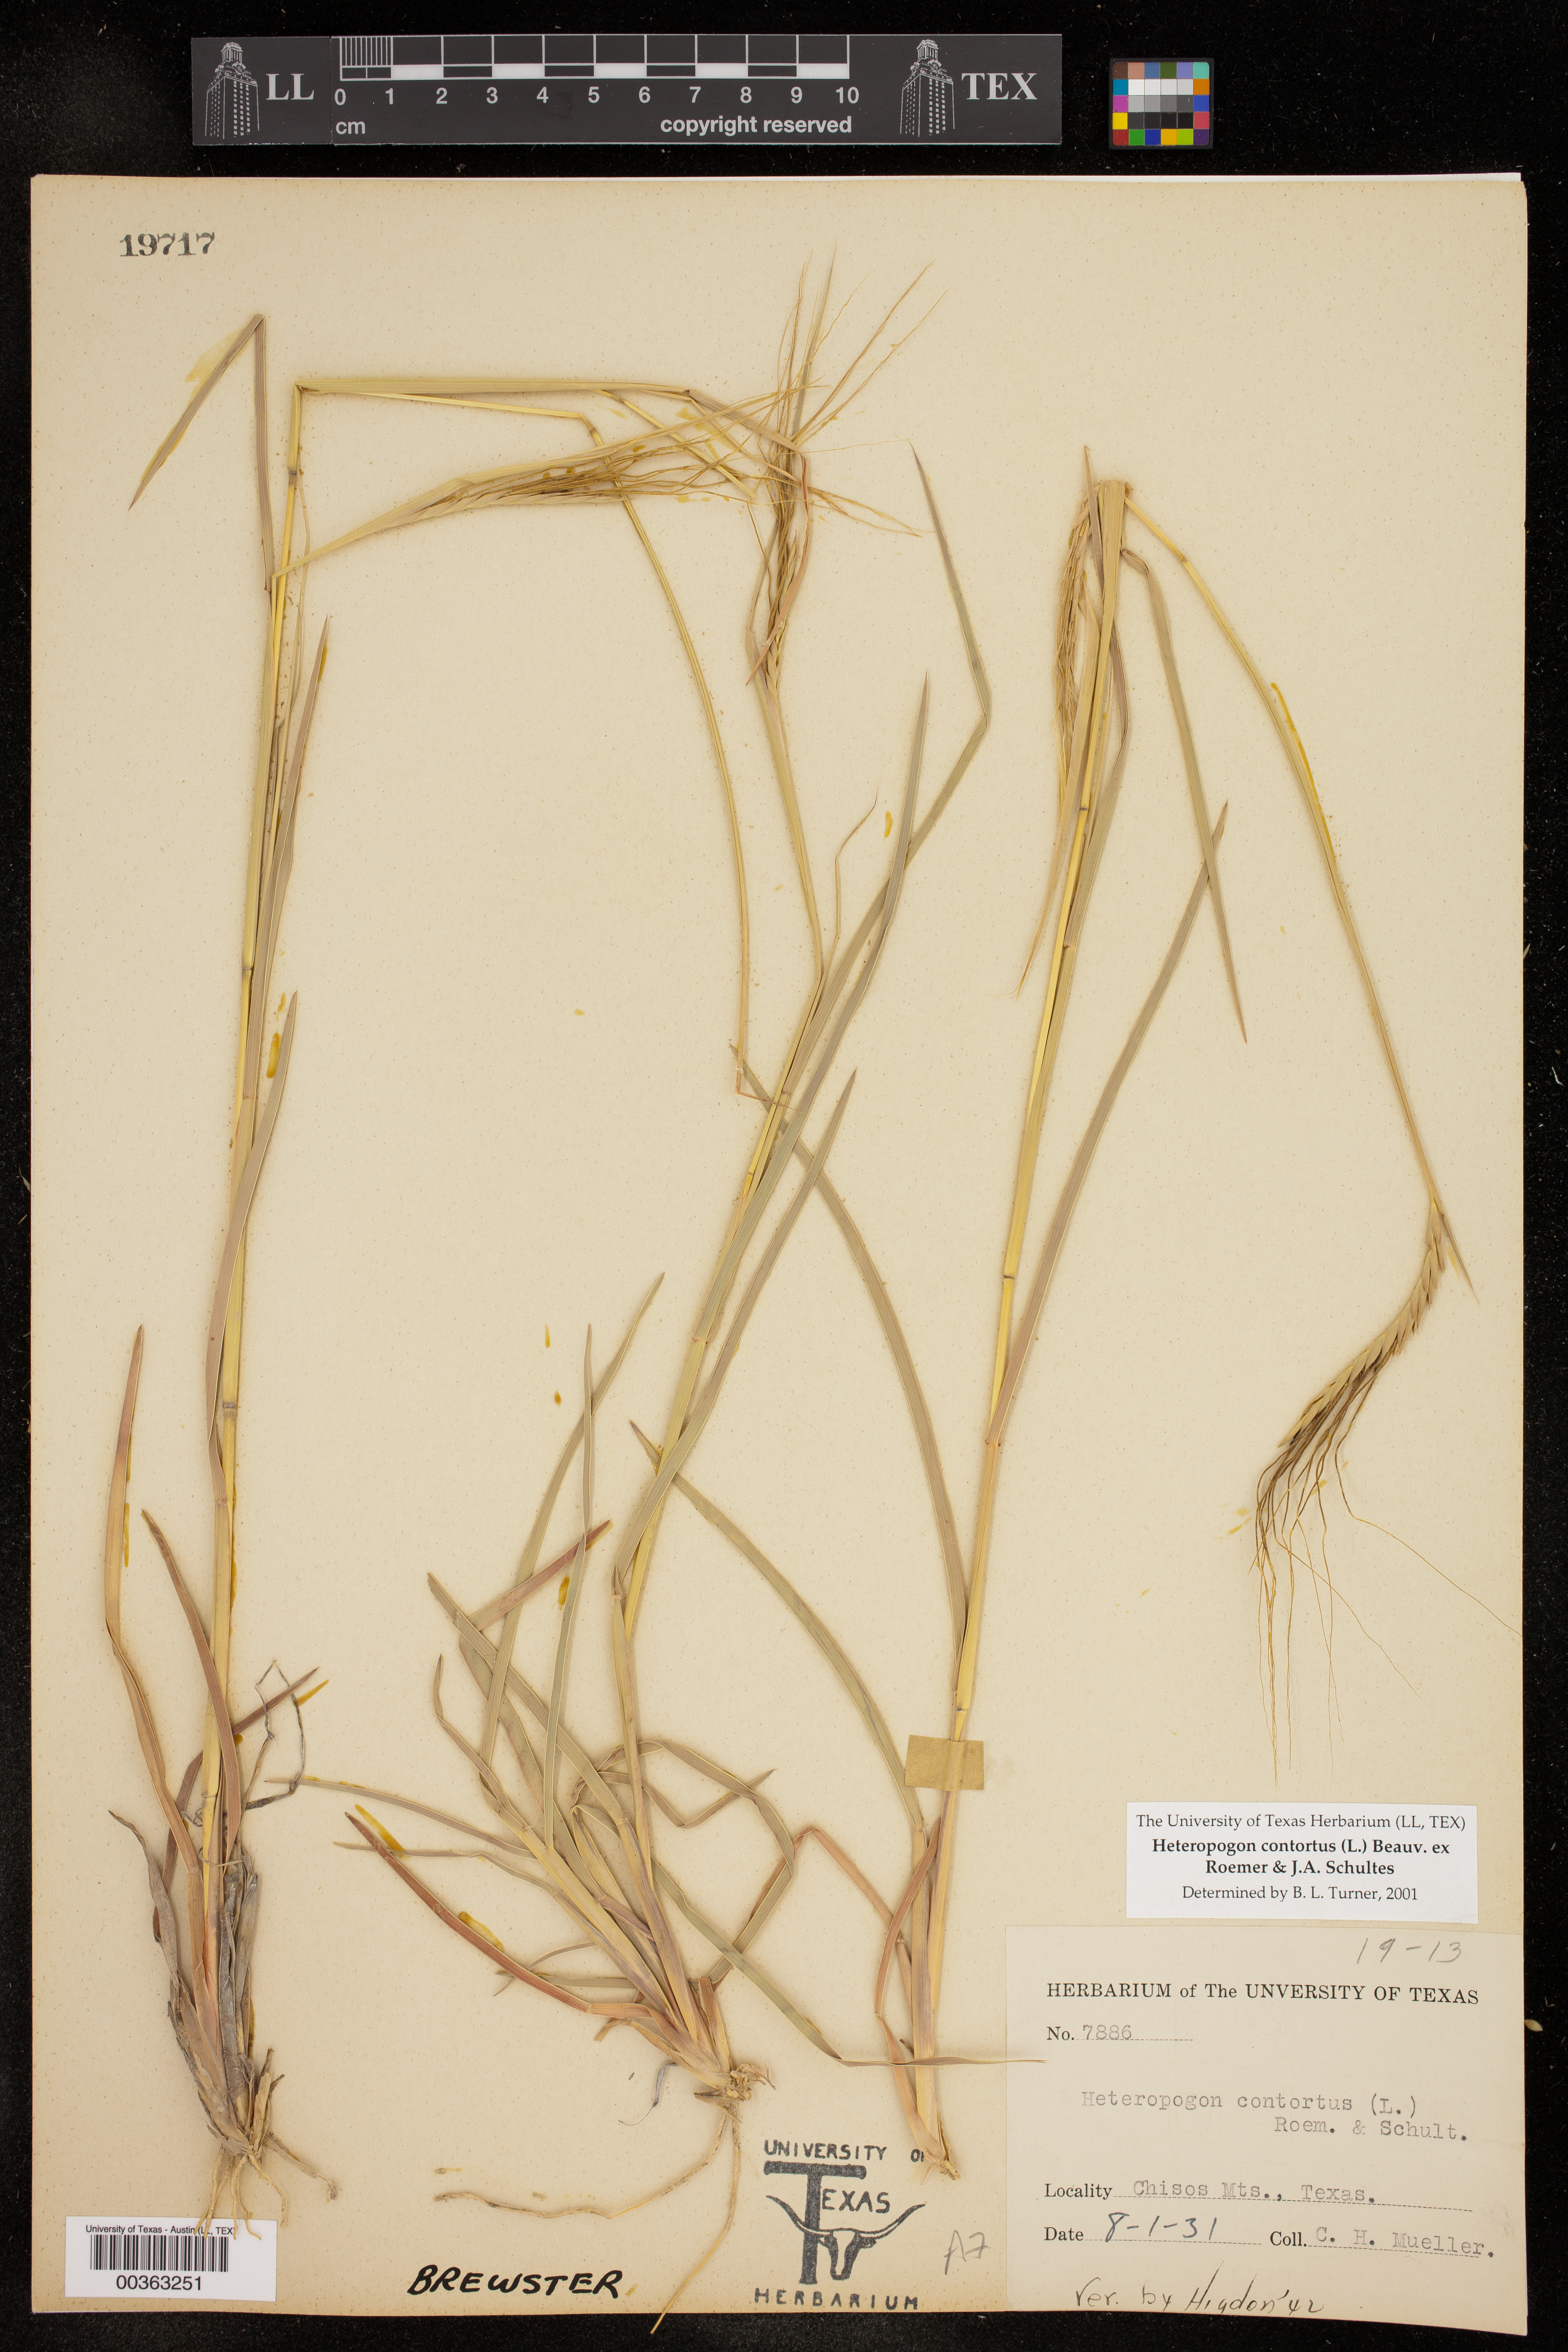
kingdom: Plantae
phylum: Tracheophyta
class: Liliopsida
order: Poales
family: Poaceae
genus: Heteropogon
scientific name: Heteropogon contortus
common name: Tanglehead
